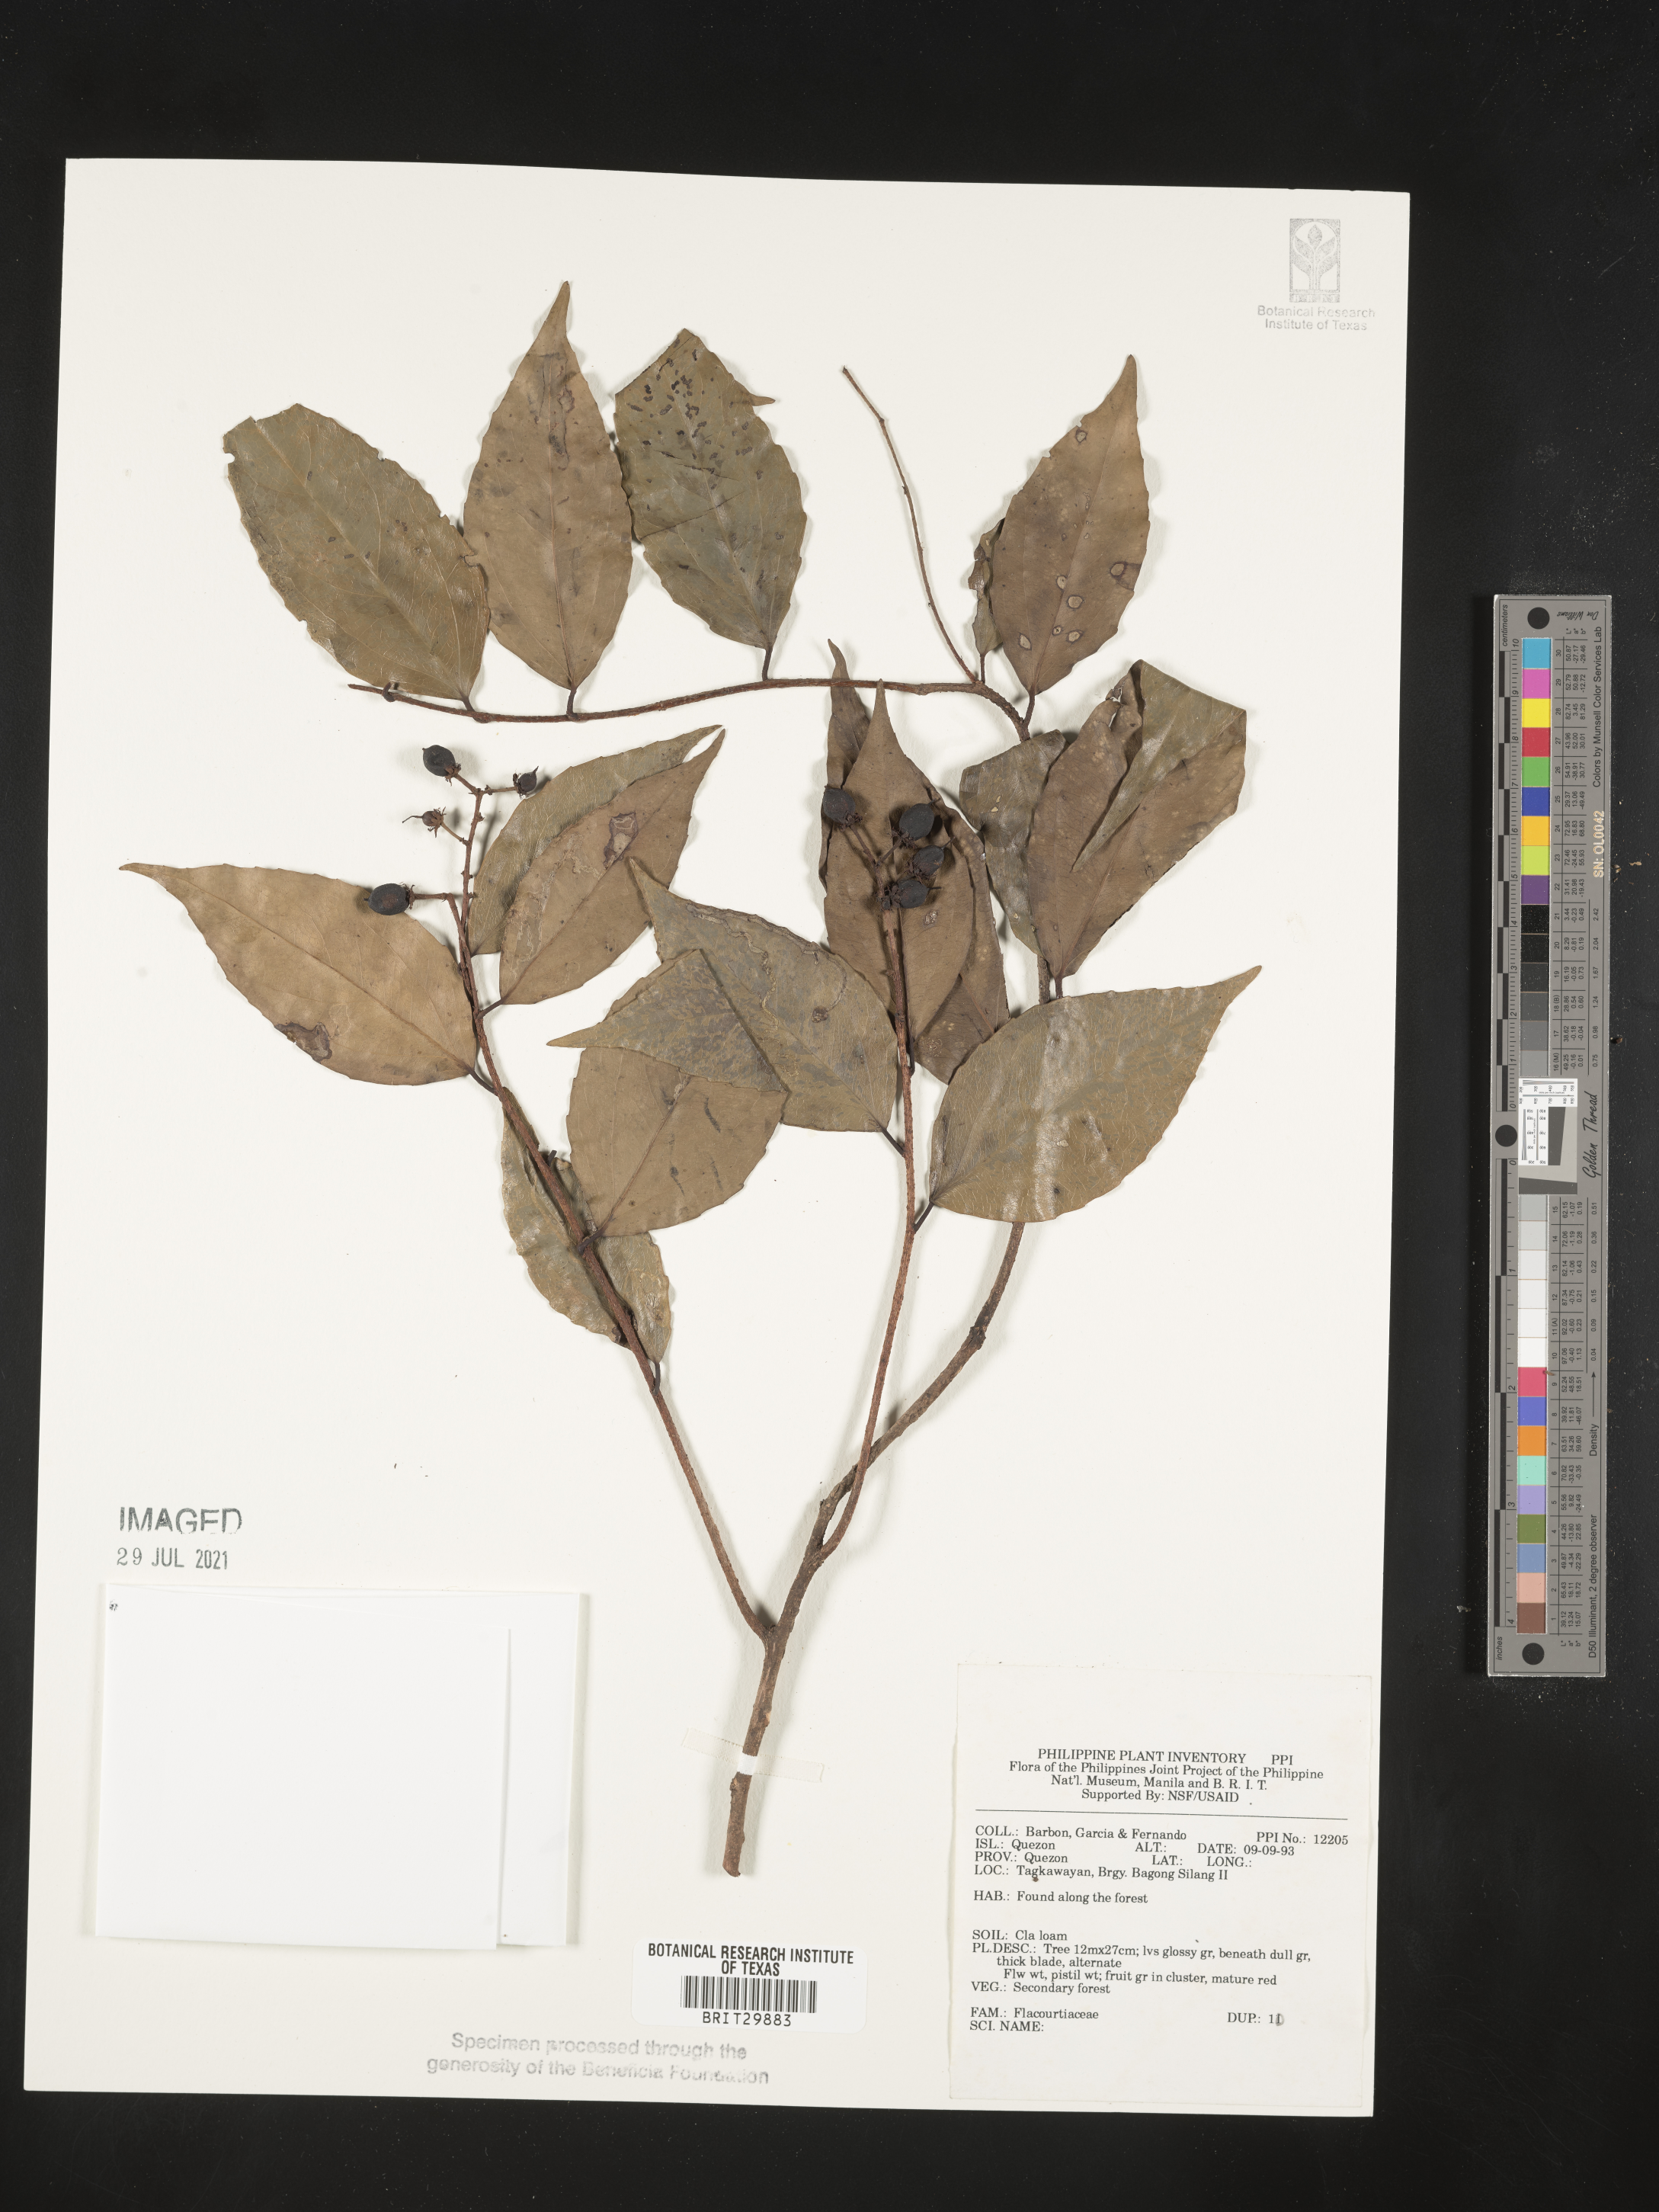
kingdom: Plantae
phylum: Tracheophyta
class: Magnoliopsida
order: Malpighiales
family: Flacourtiaceae
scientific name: Flacourtiaceae
